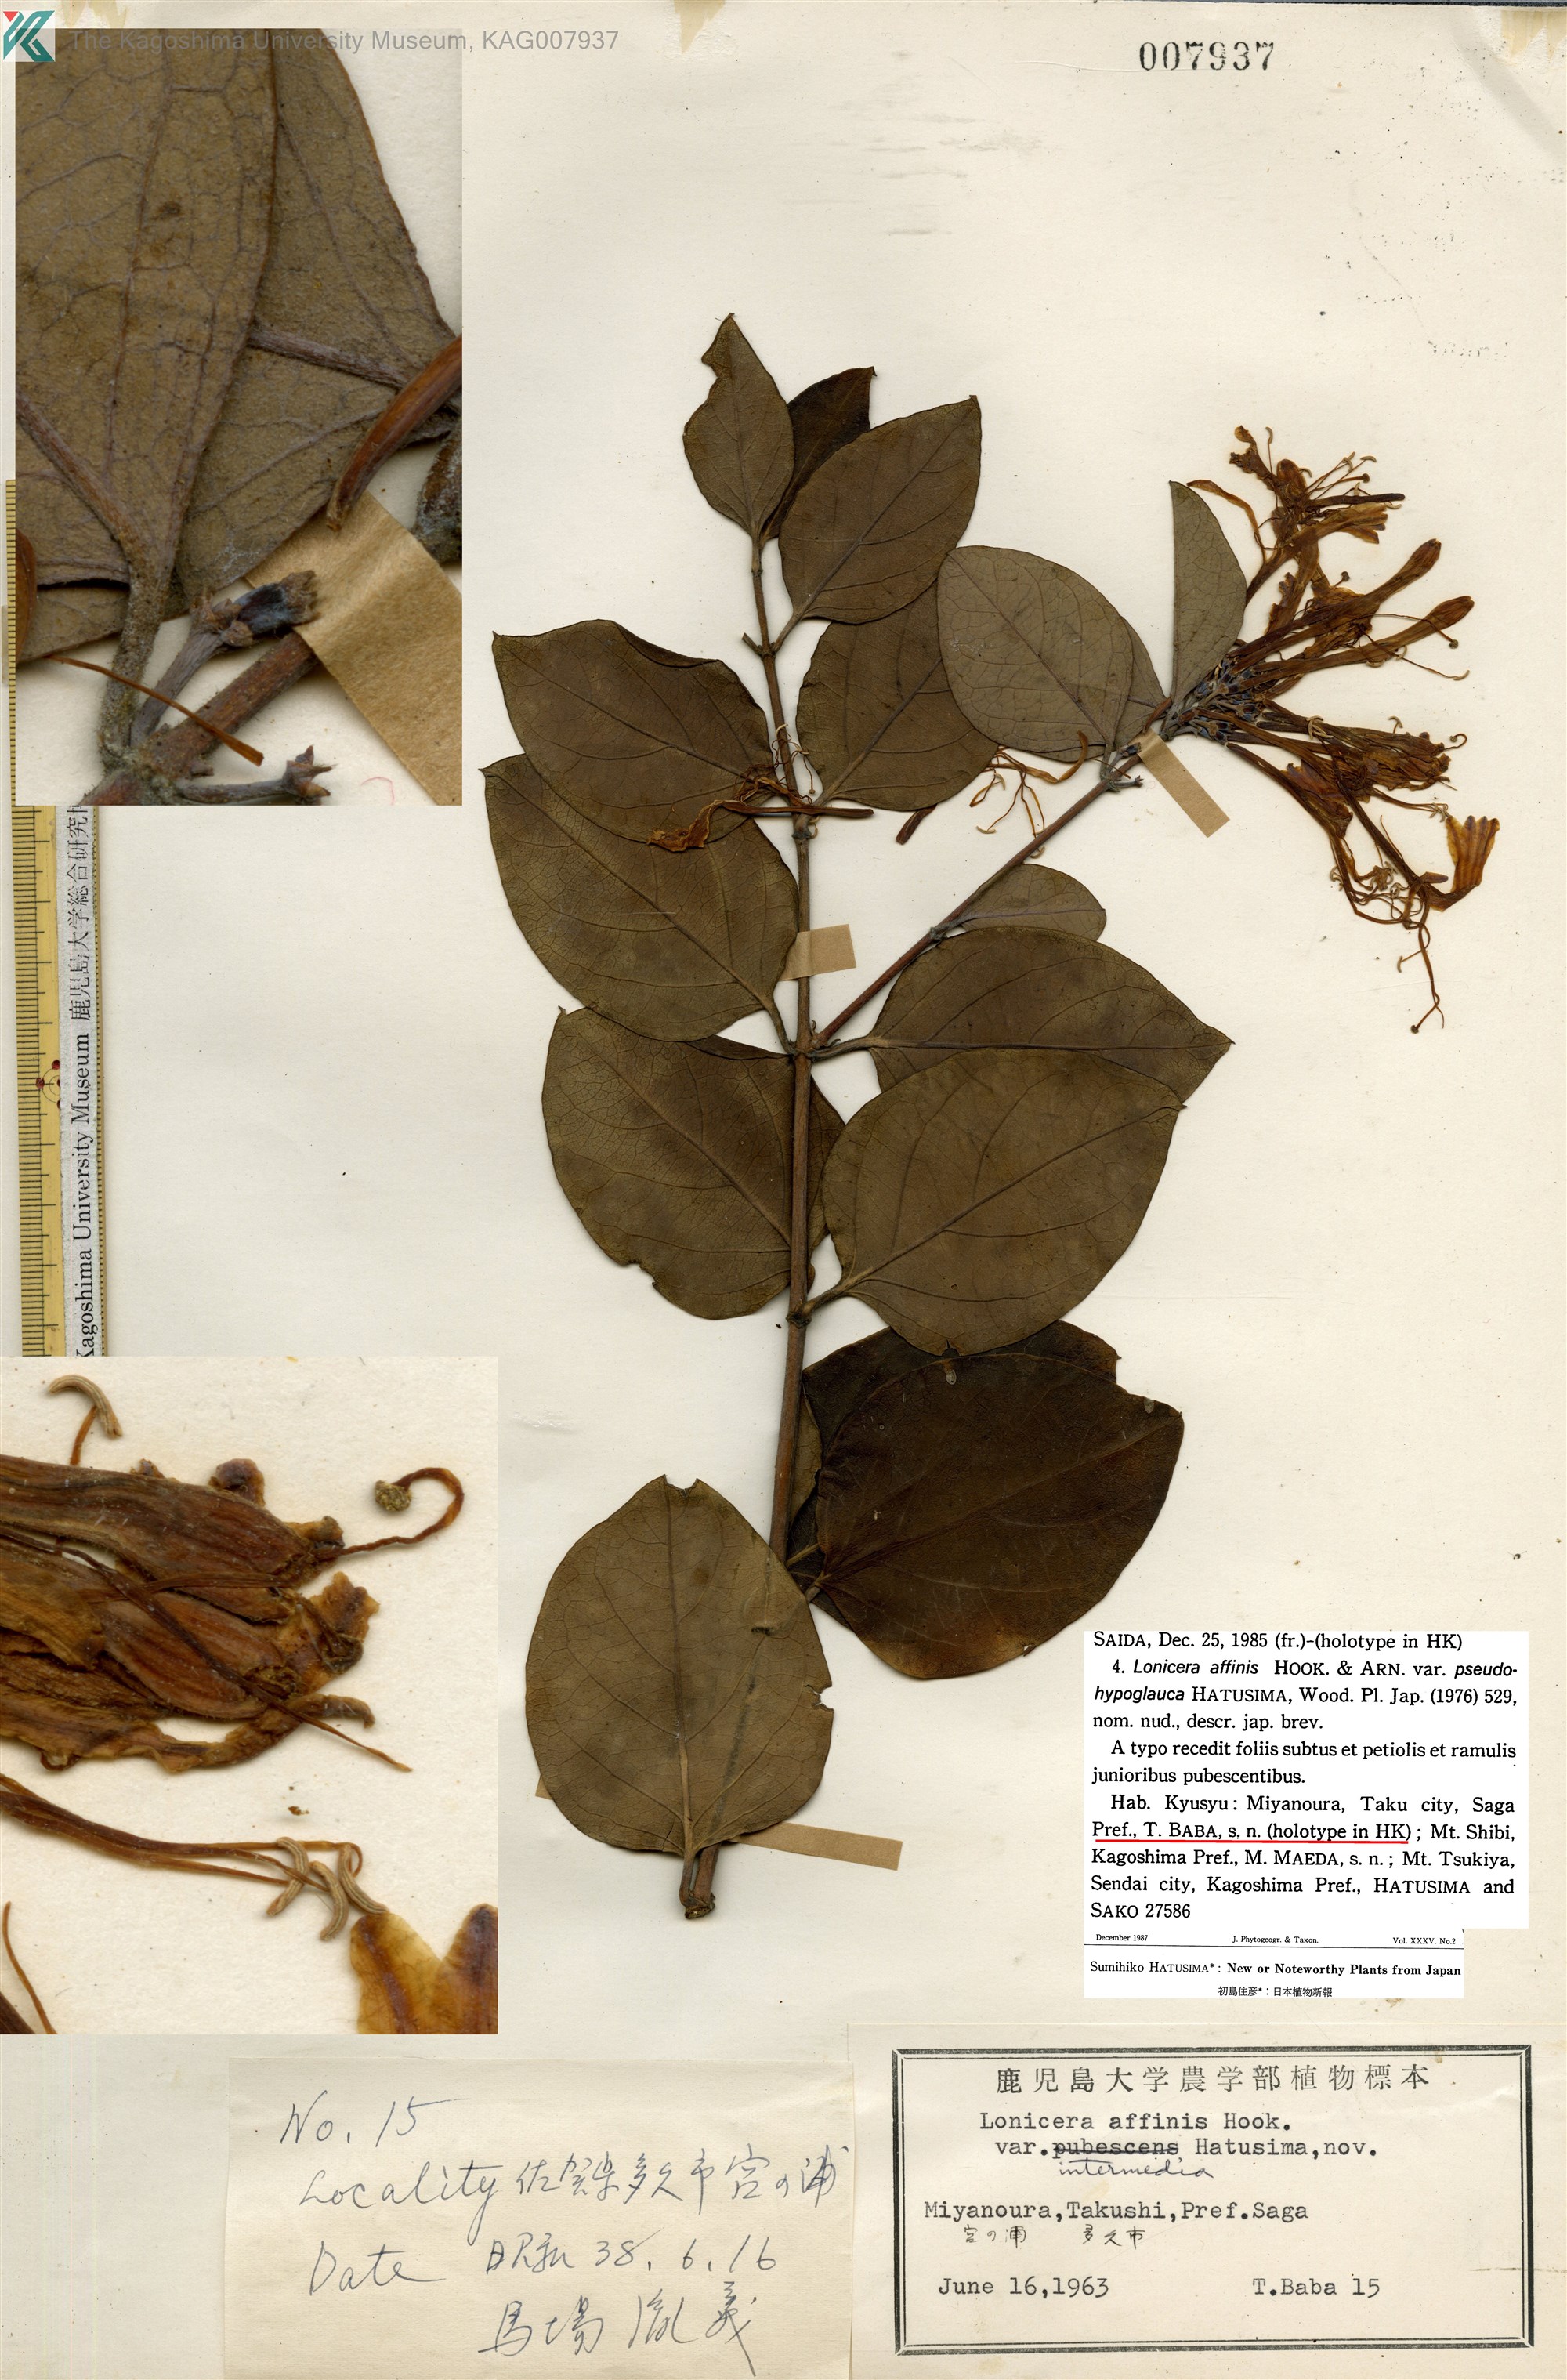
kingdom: Plantae
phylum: Tracheophyta
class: Magnoliopsida
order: Dipsacales
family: Caprifoliaceae
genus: Lonicera
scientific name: Lonicera affinis
